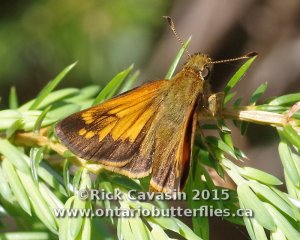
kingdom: Animalia
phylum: Arthropoda
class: Insecta
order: Lepidoptera
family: Hesperiidae
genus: Lon
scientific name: Lon hobomok
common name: Hobomok Skipper
